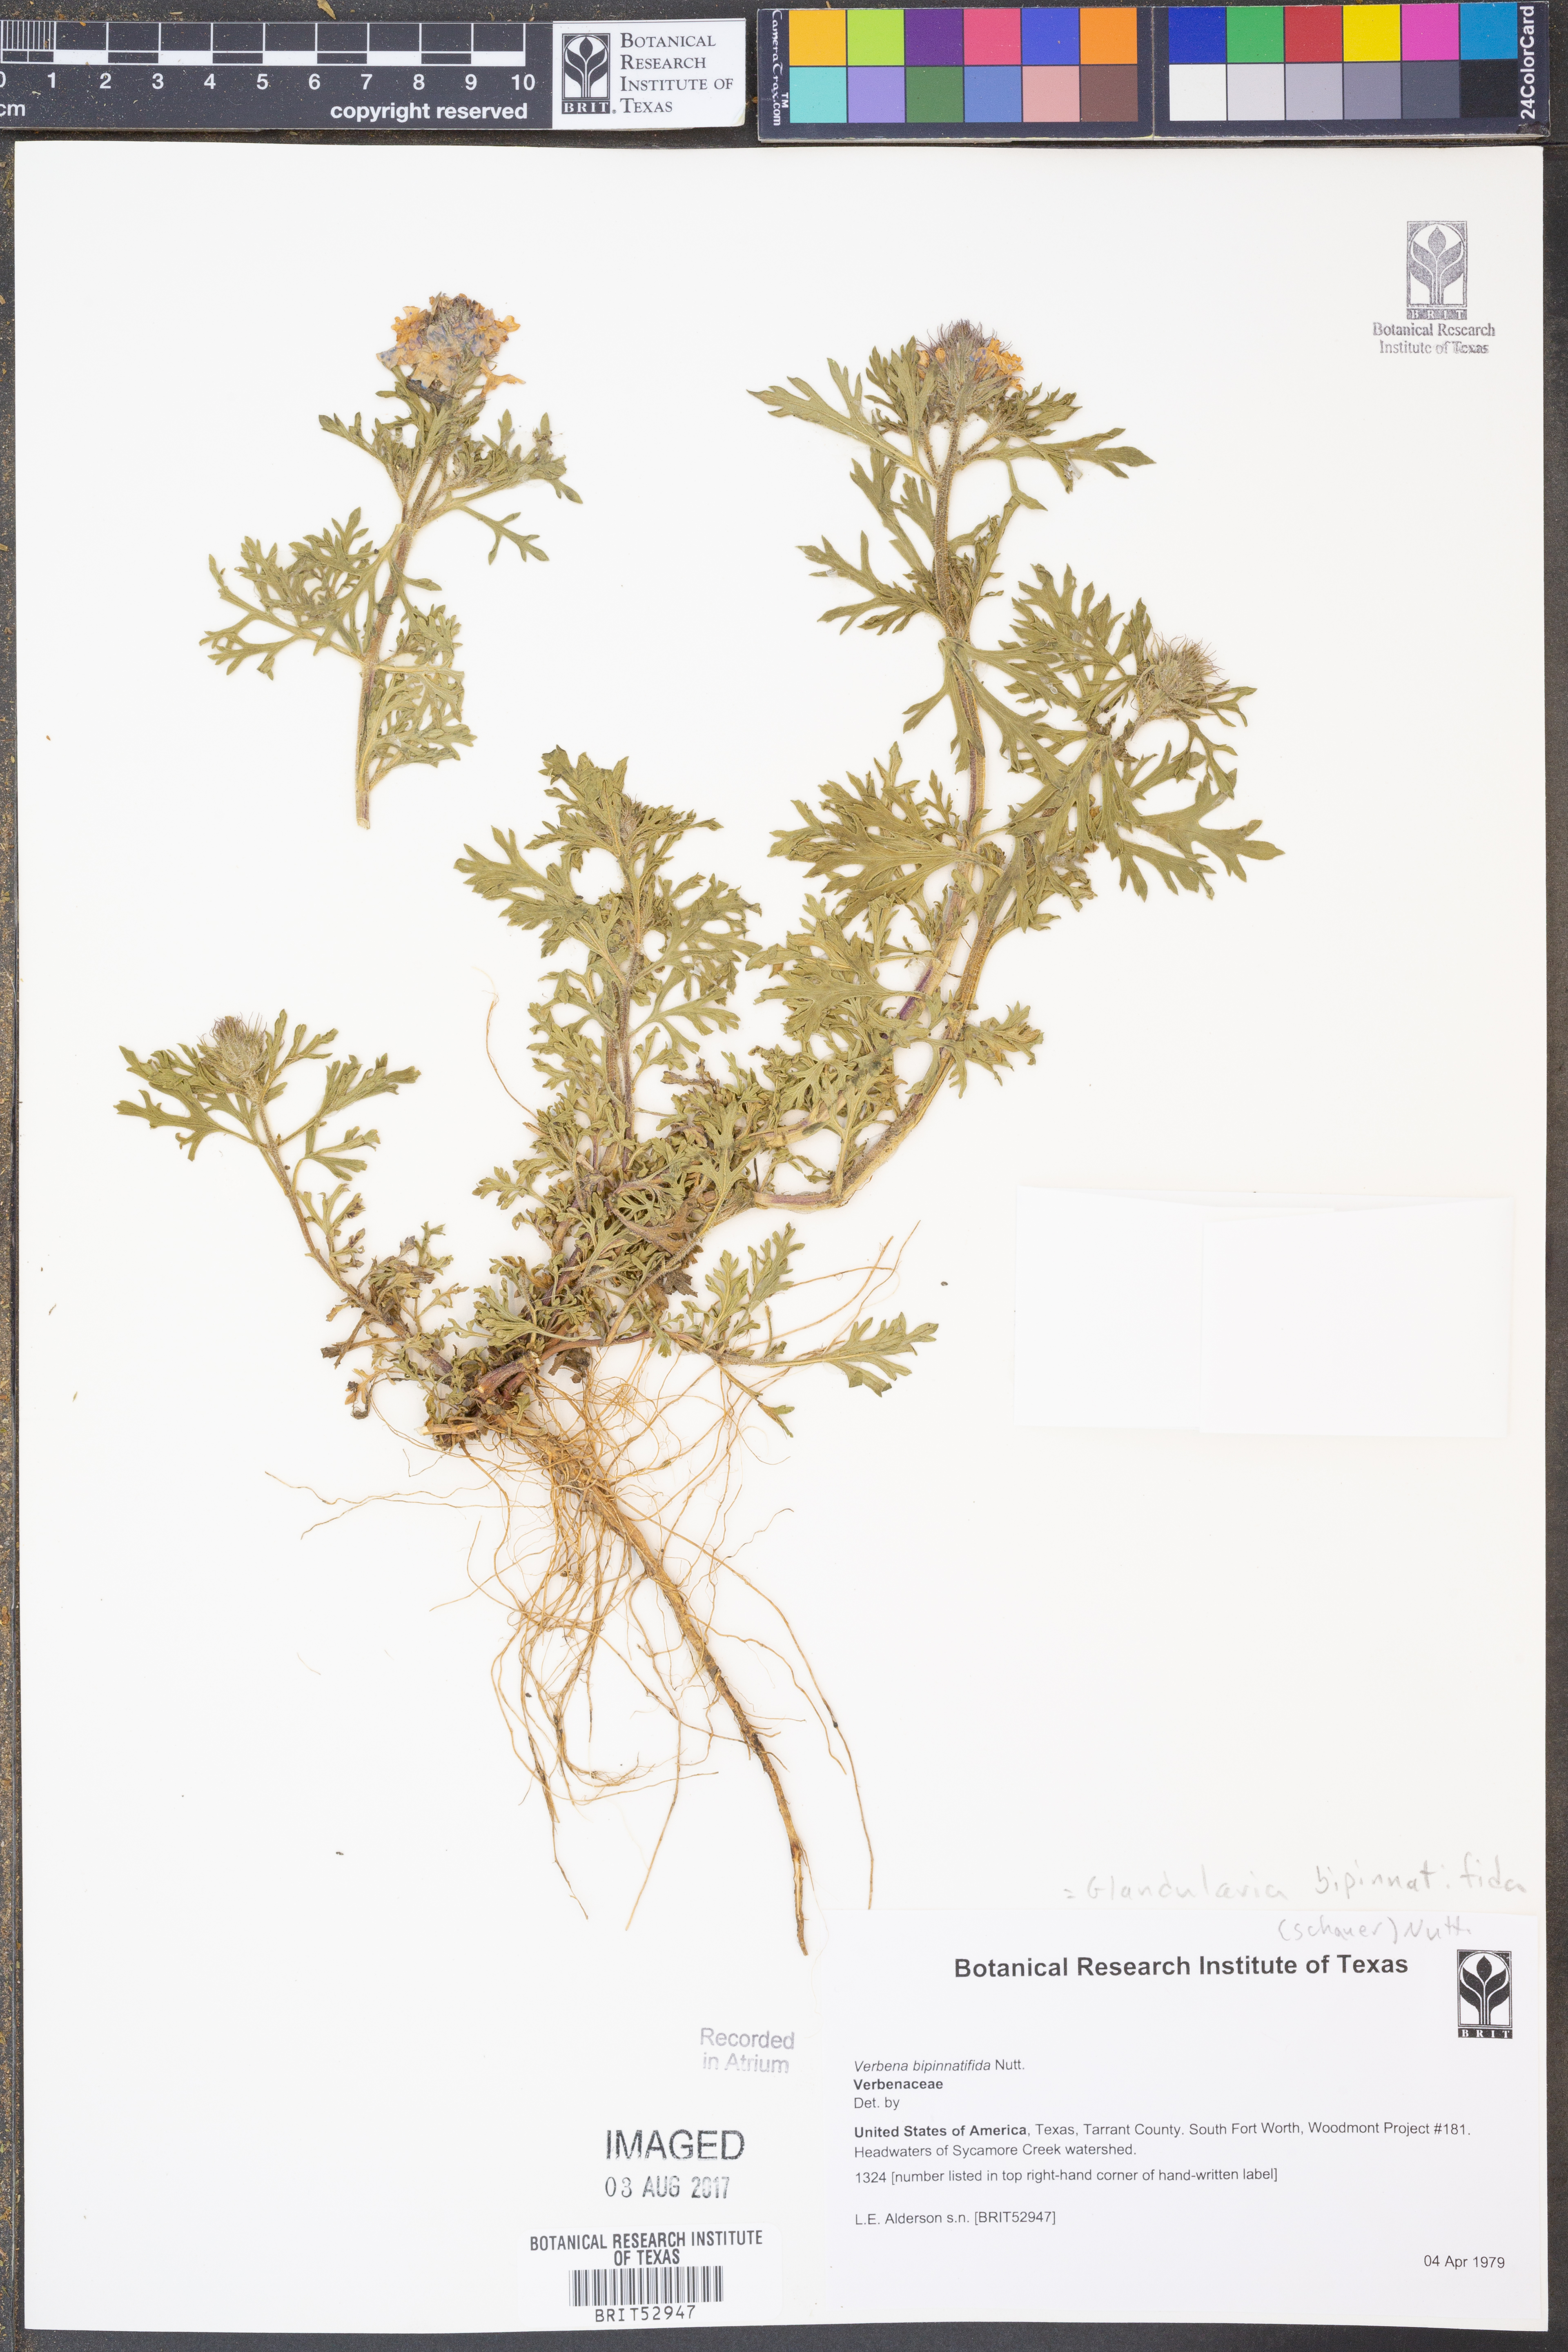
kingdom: Plantae
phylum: Tracheophyta
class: Magnoliopsida
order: Lamiales
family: Verbenaceae
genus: Verbena
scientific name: Verbena bipinnatifida
